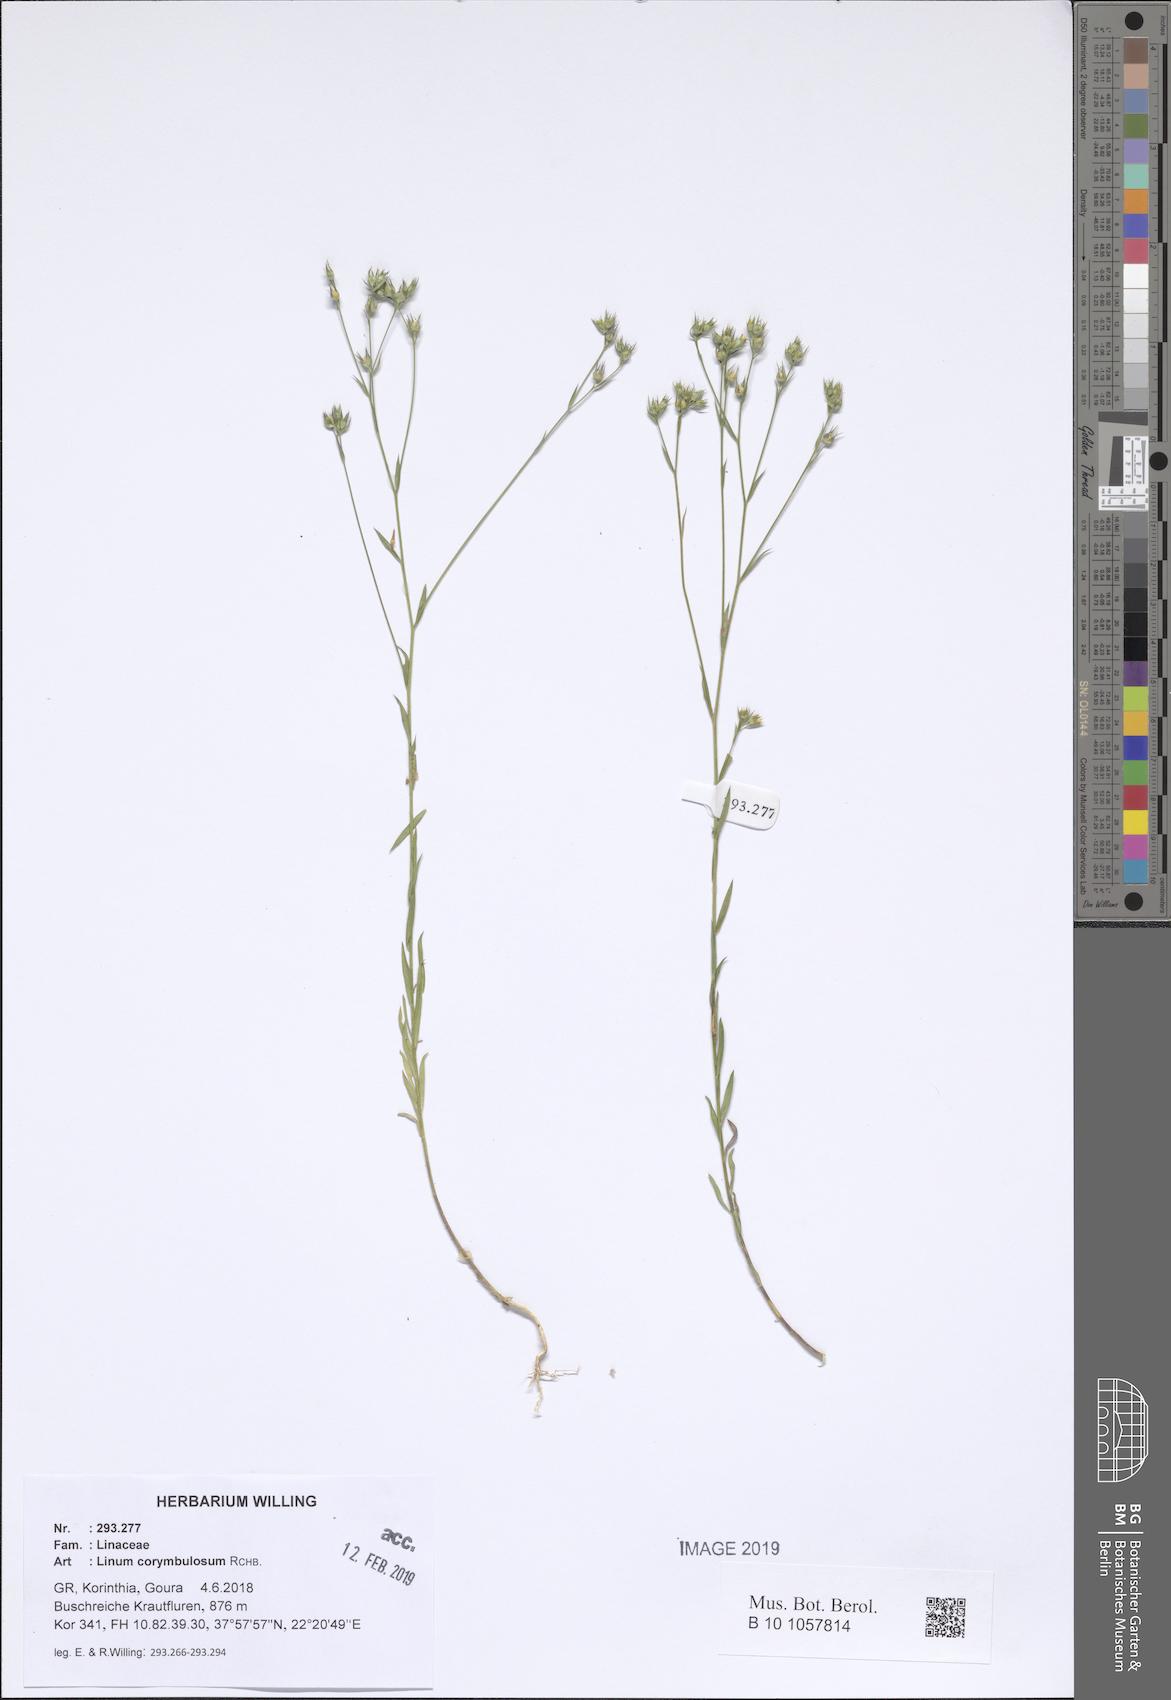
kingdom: Plantae
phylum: Tracheophyta
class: Magnoliopsida
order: Malpighiales
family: Linaceae
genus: Linum
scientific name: Linum corymbulosum
